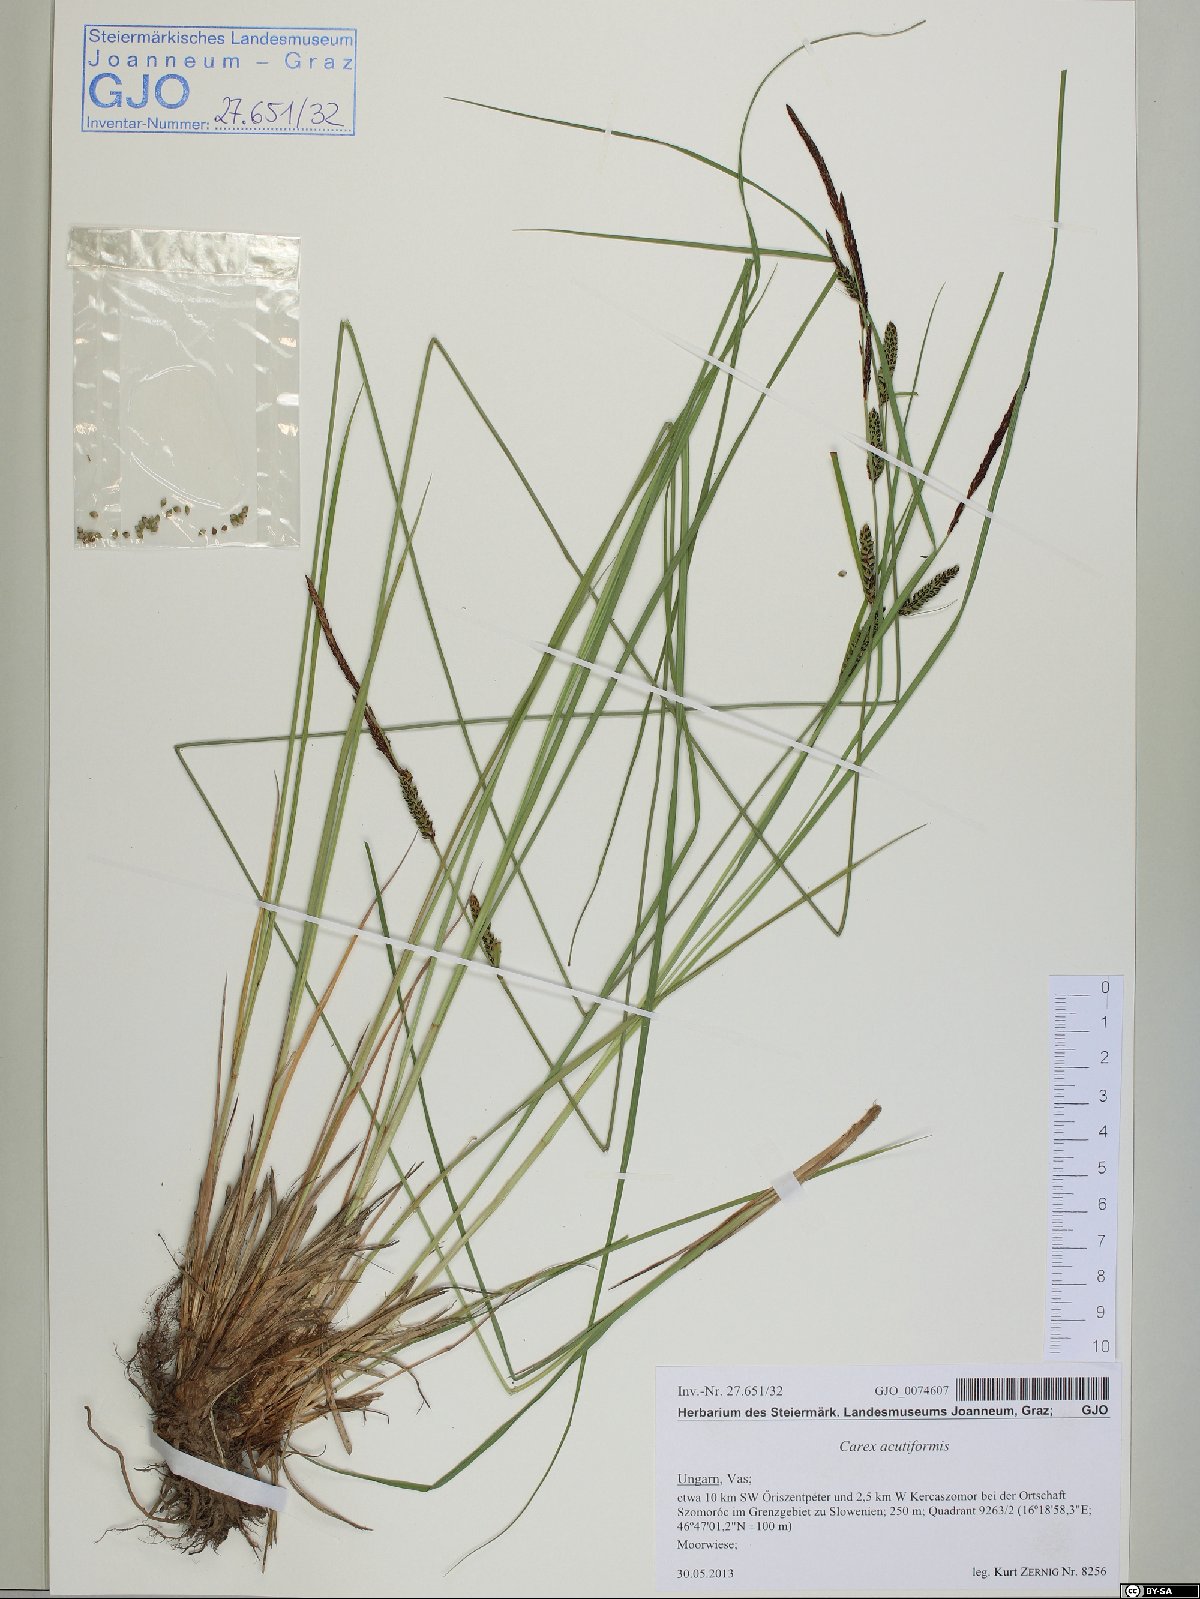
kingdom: Plantae
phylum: Tracheophyta
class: Liliopsida
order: Poales
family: Cyperaceae
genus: Carex
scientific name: Carex acutiformis
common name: Lesser pond-sedge
